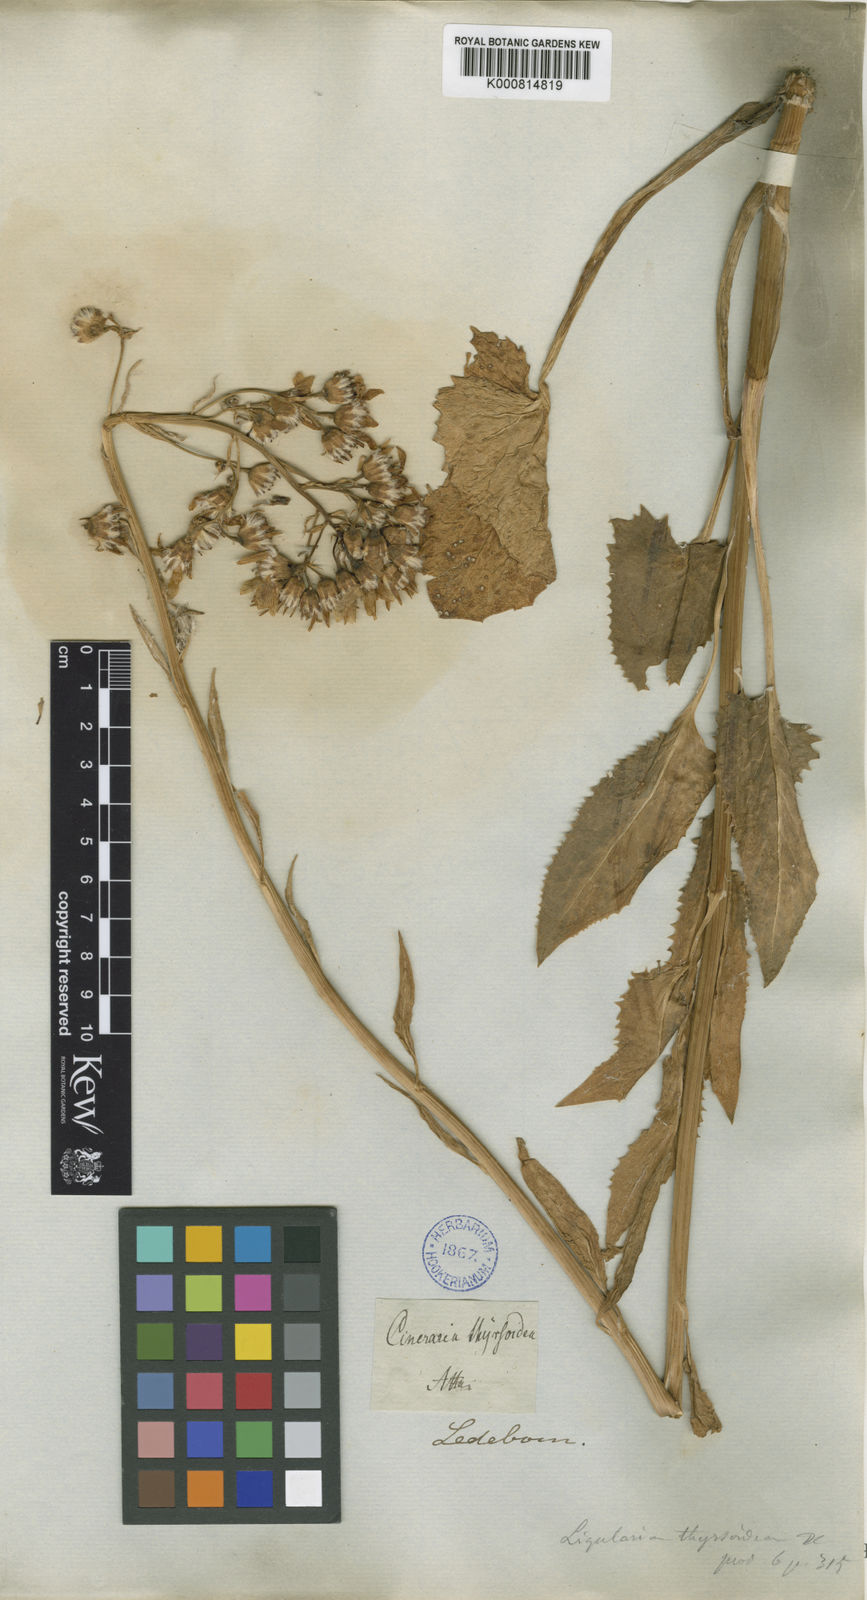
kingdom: Plantae
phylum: Tracheophyta
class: Magnoliopsida
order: Asterales
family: Asteraceae
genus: Vickifunkia
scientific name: Vickifunkia thyrsoidea
